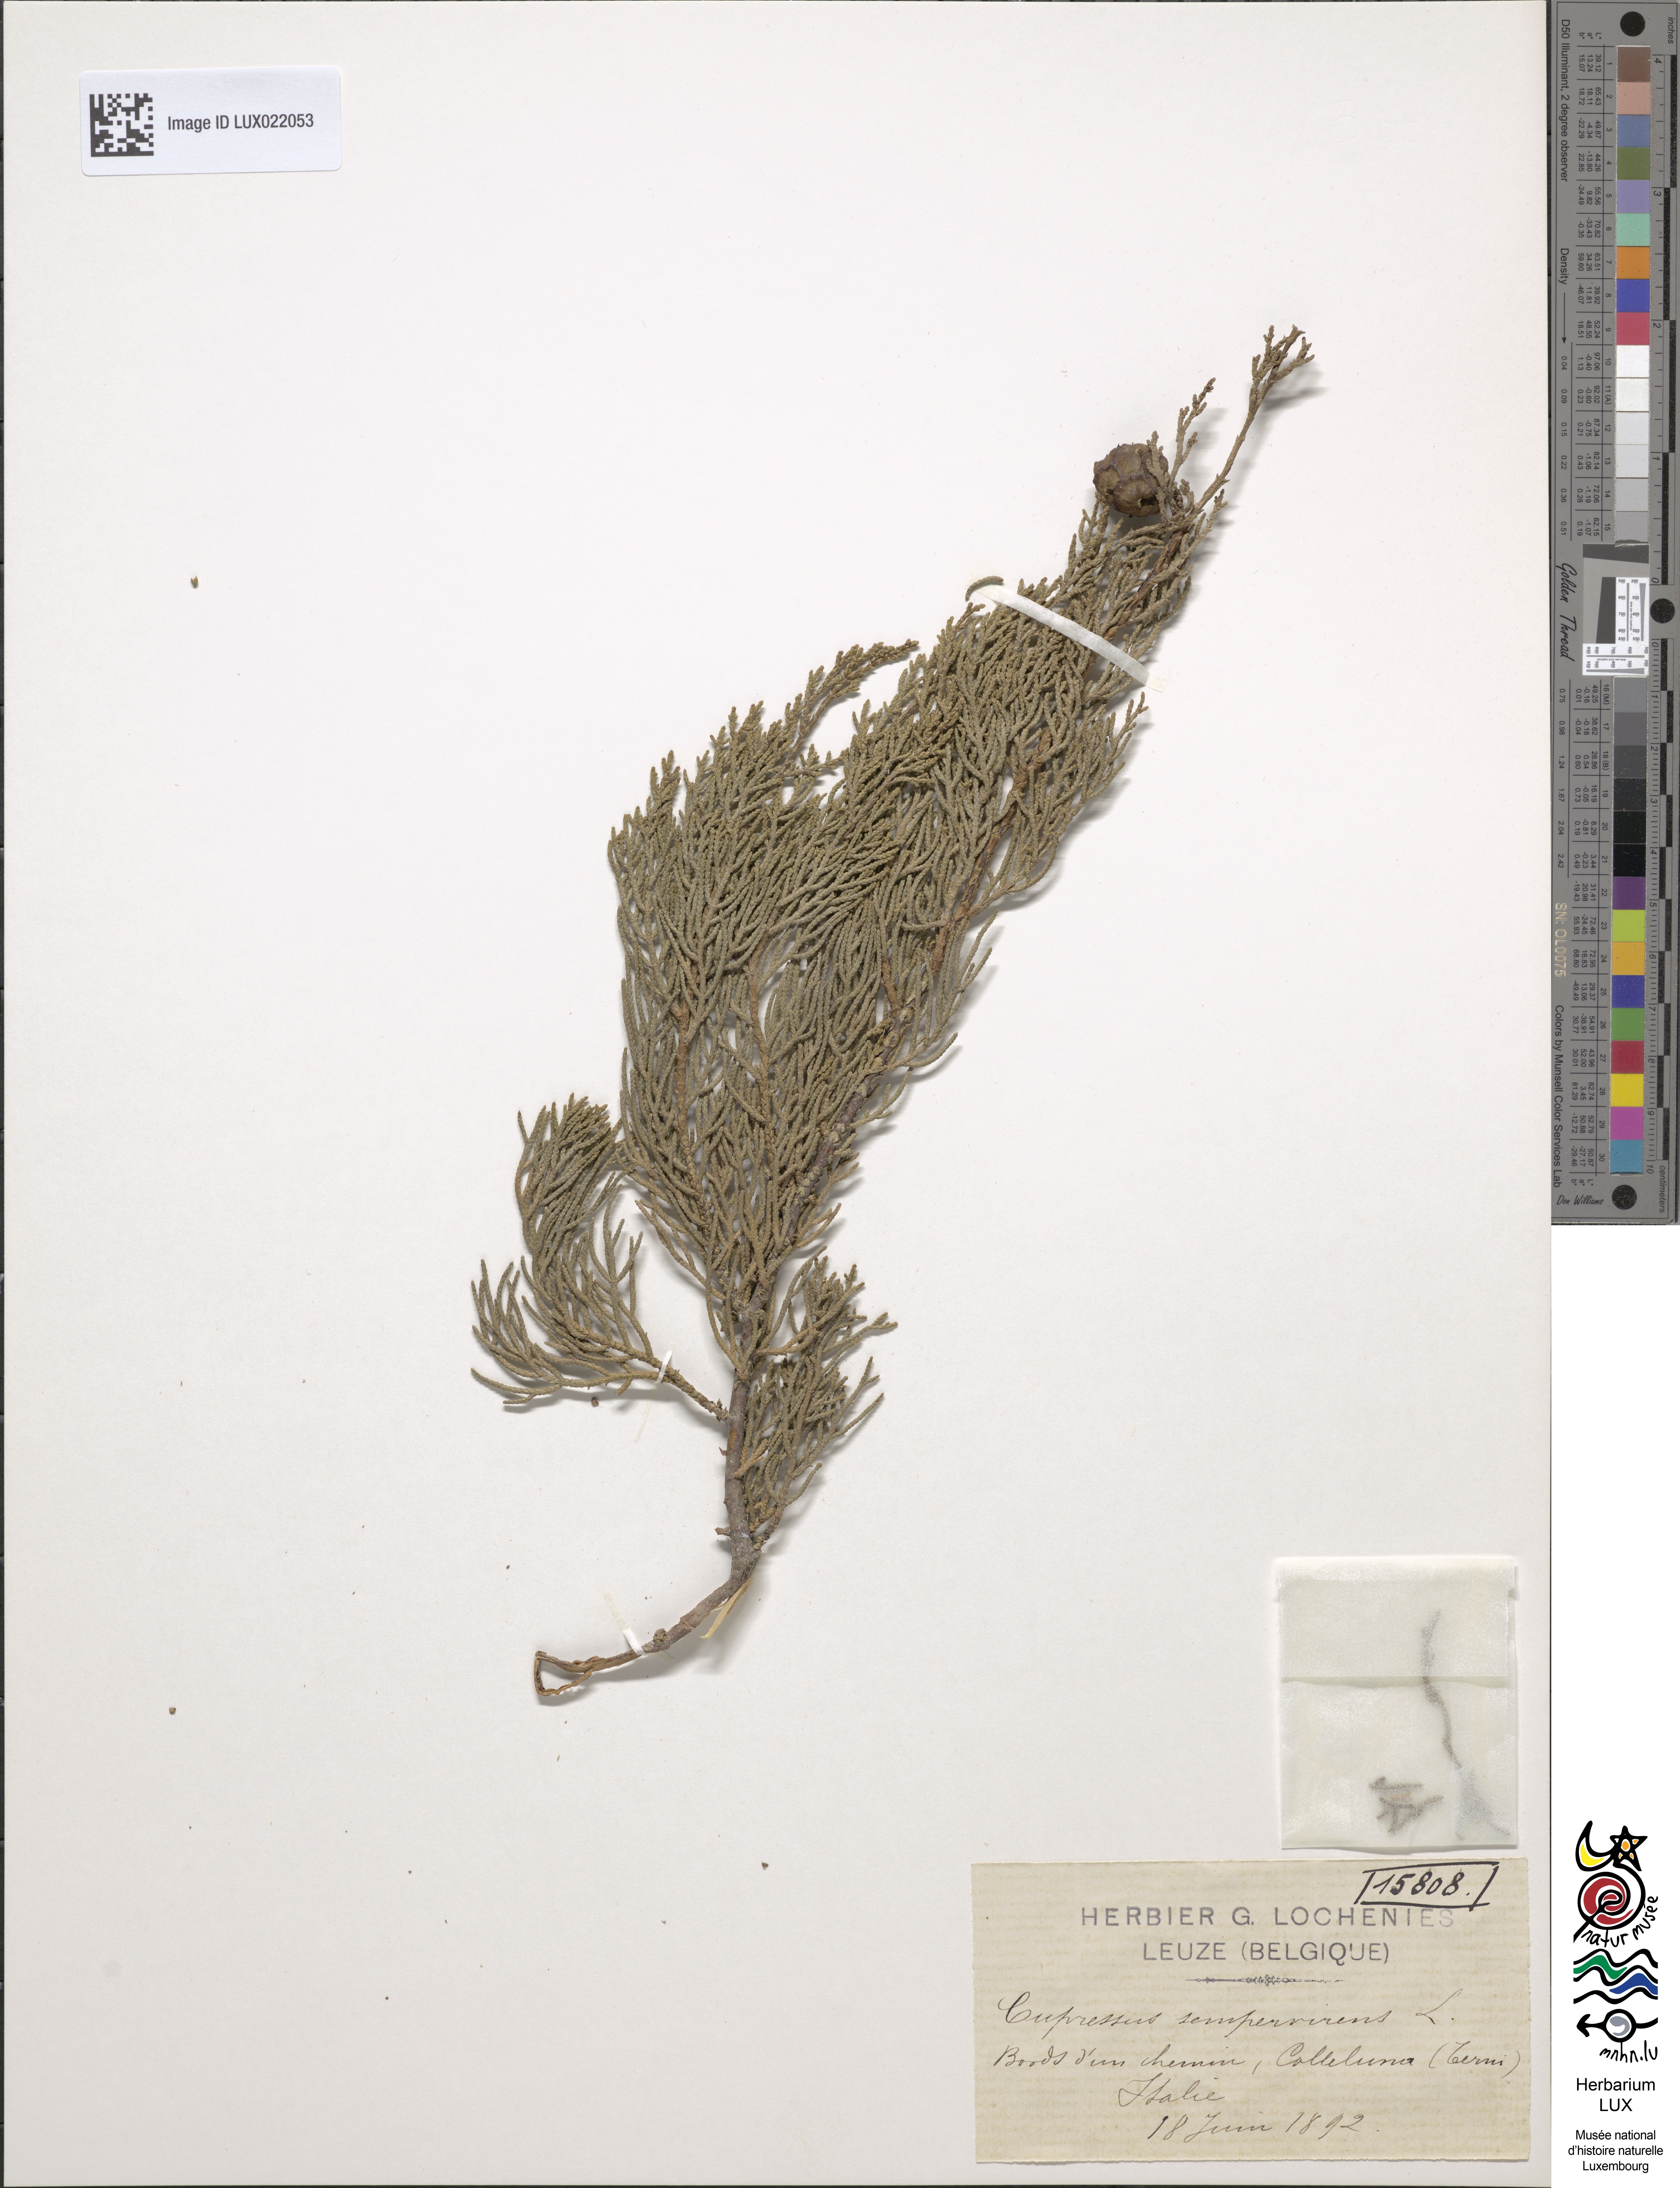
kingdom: Plantae
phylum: Tracheophyta
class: Pinopsida
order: Pinales
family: Cupressaceae
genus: Cupressus
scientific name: Cupressus sempervirens
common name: Italian cypress
